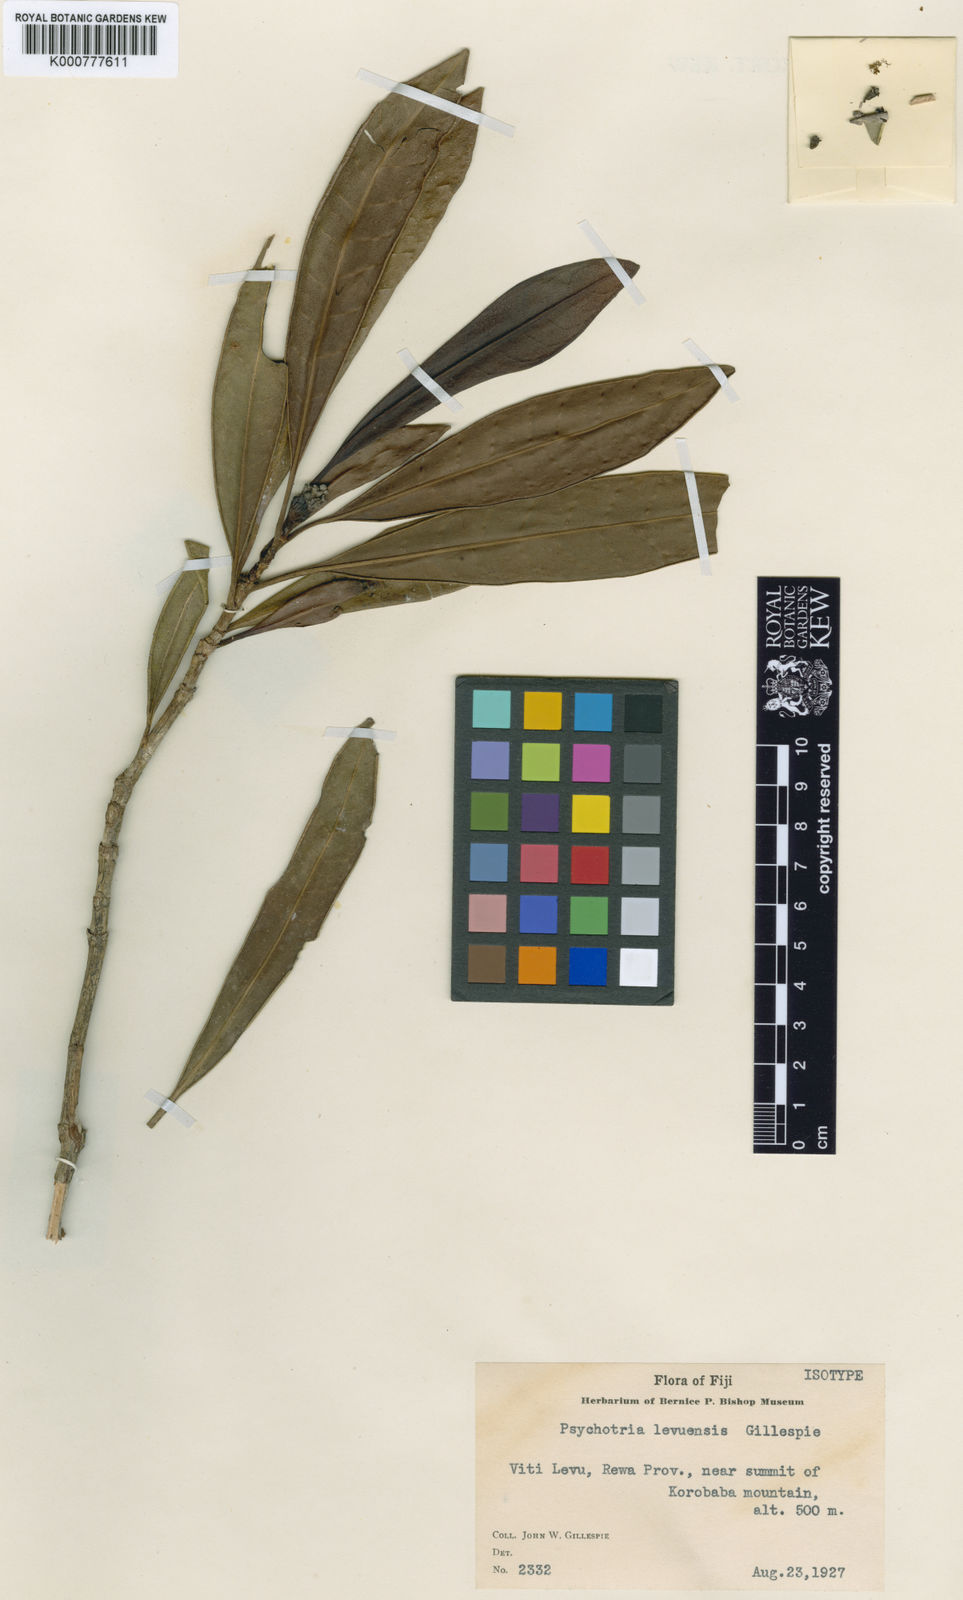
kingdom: Plantae
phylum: Tracheophyta
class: Magnoliopsida
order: Gentianales
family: Rubiaceae
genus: Psychotria
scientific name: Psychotria levuensis
